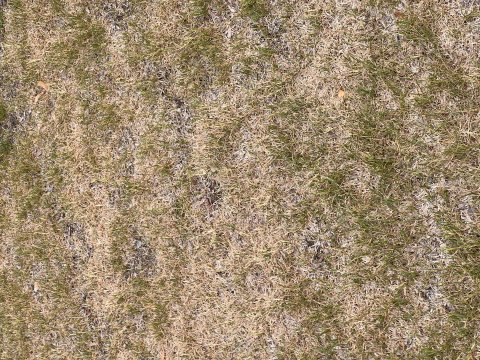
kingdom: Animalia
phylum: Arthropoda
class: Insecta
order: Lepidoptera
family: Nymphalidae
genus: Coenonympha
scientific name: Coenonympha tullia
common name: Large Heath
